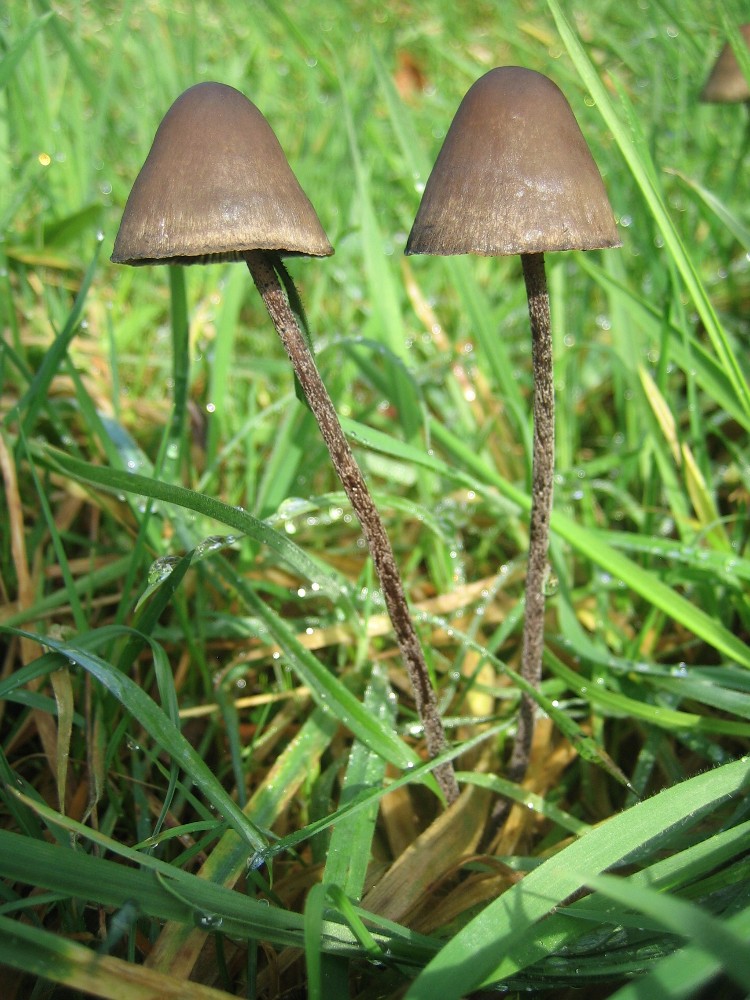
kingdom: Fungi
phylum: Basidiomycota
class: Agaricomycetes
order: Agaricales
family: Bolbitiaceae
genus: Panaeolus
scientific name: Panaeolus
